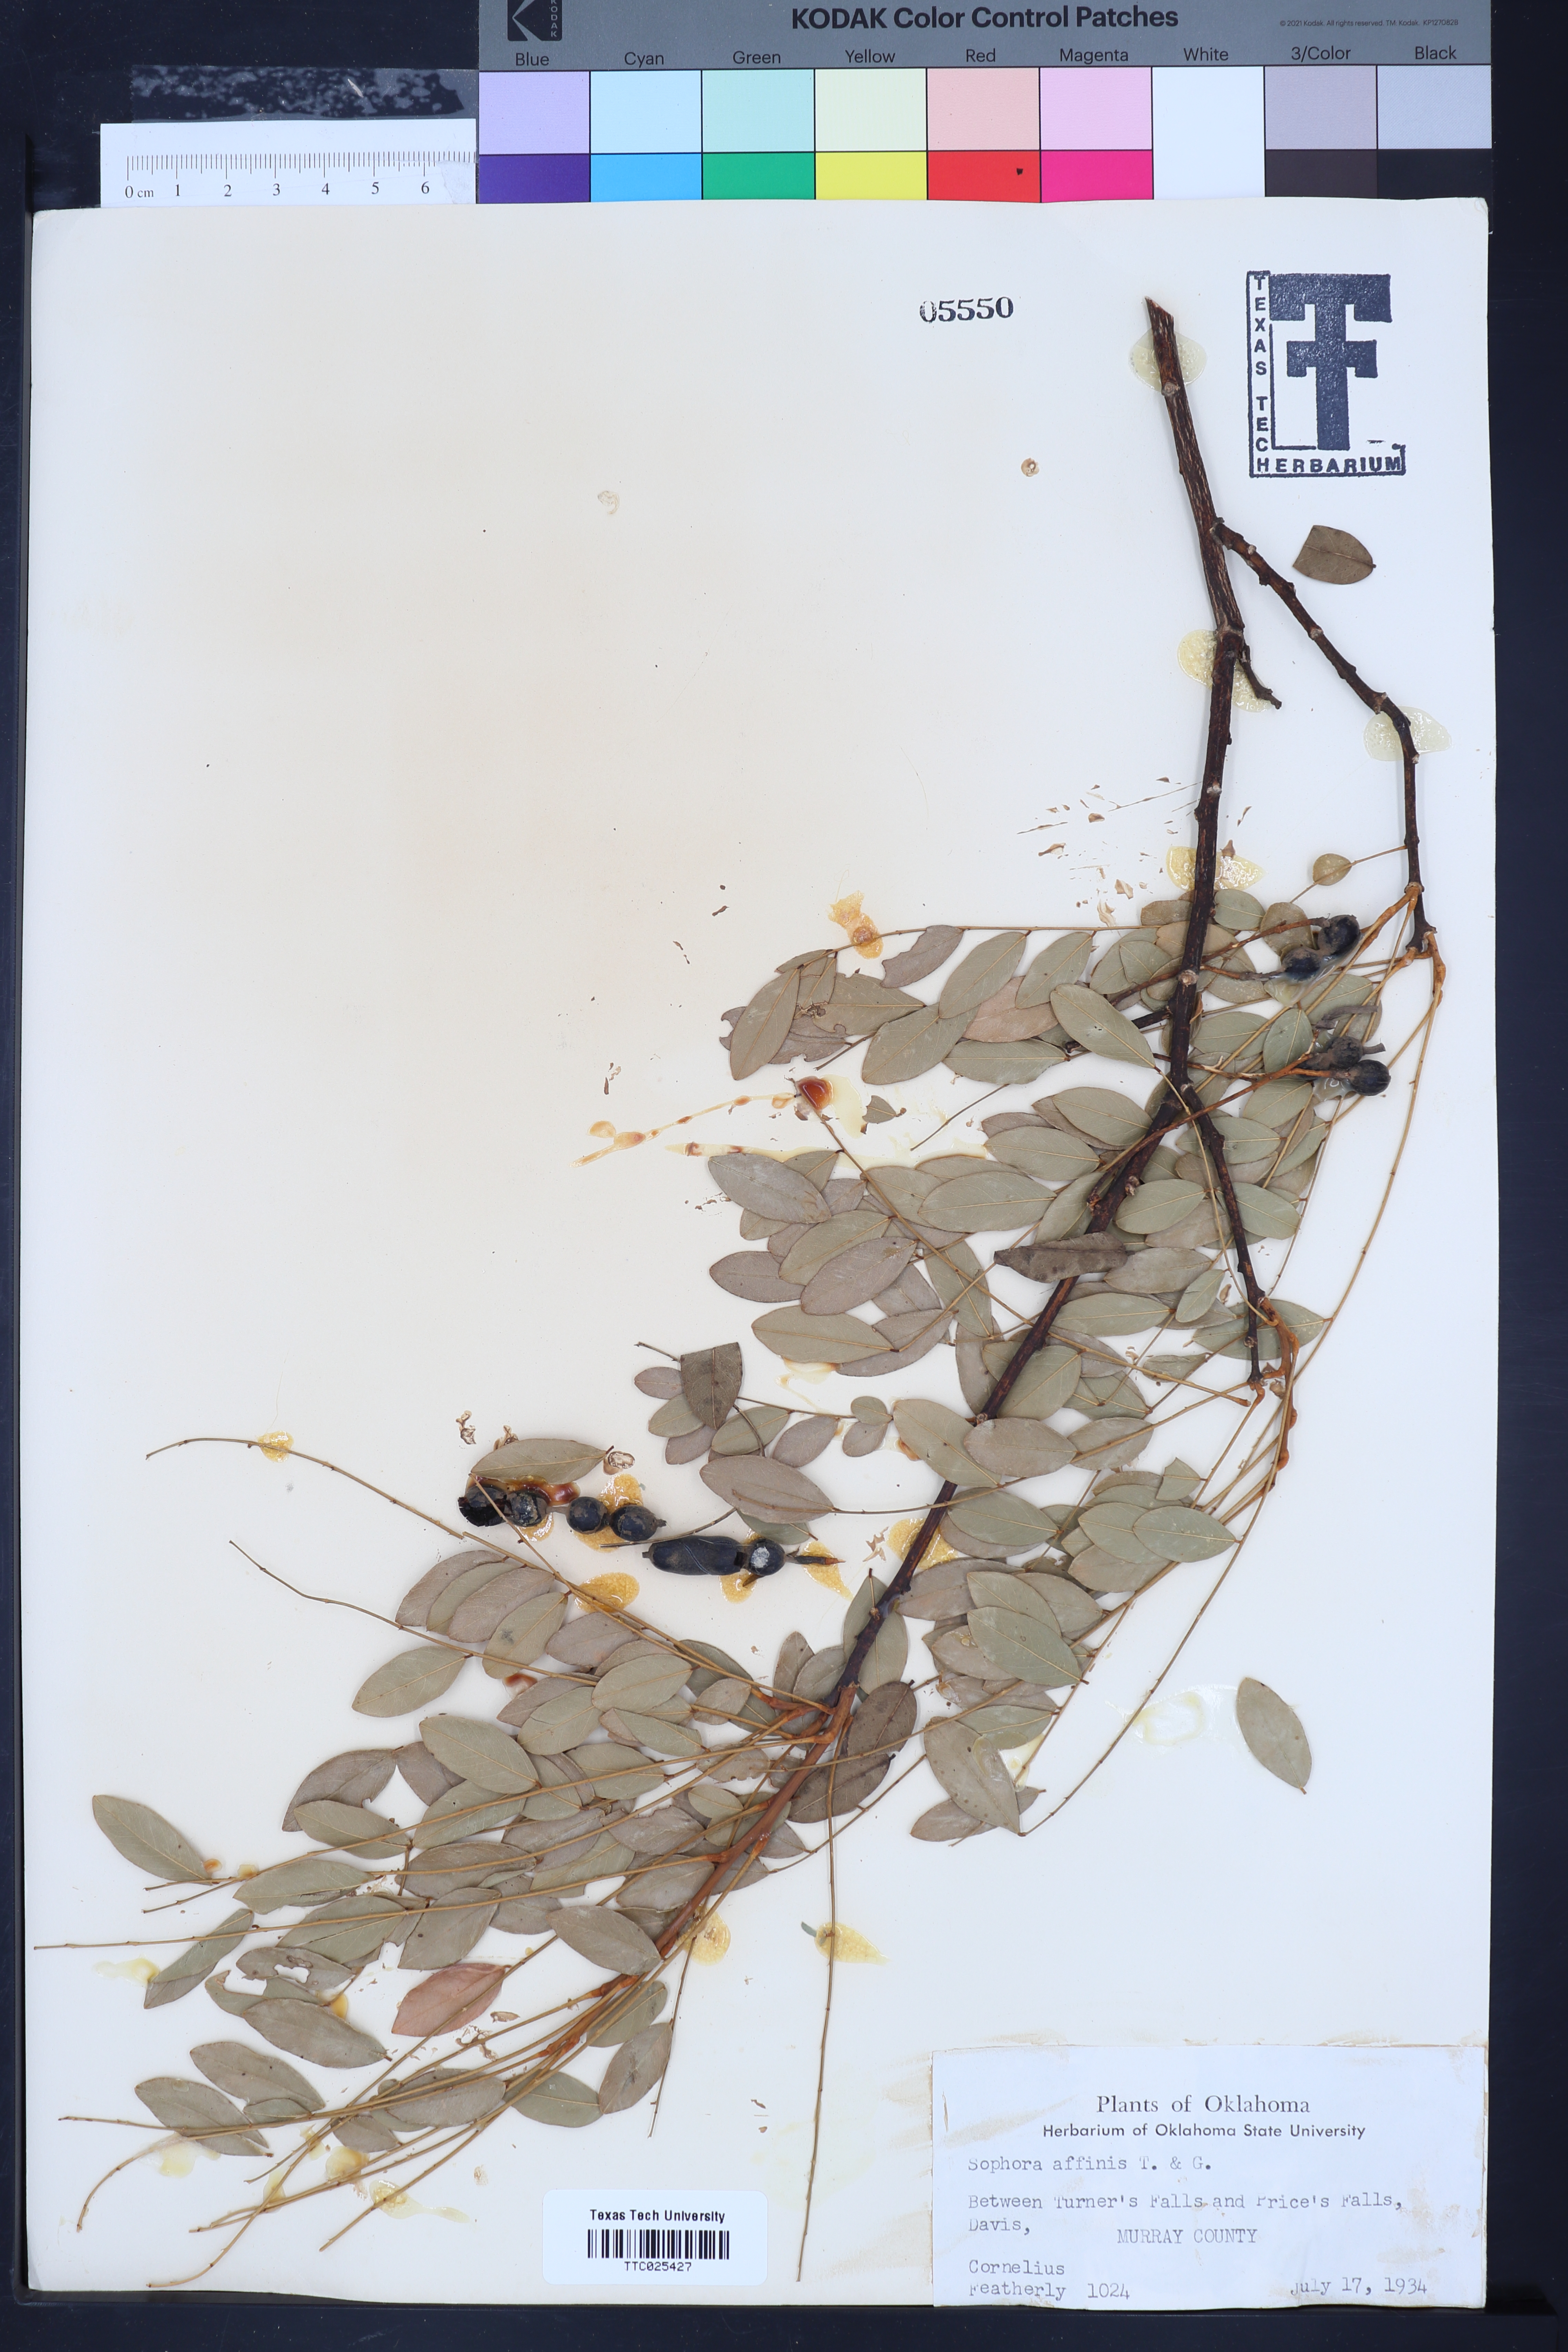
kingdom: Plantae
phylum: Tracheophyta
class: Magnoliopsida
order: Fabales
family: Fabaceae
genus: Styphnolobium
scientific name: Styphnolobium affine
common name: Texas sophora
